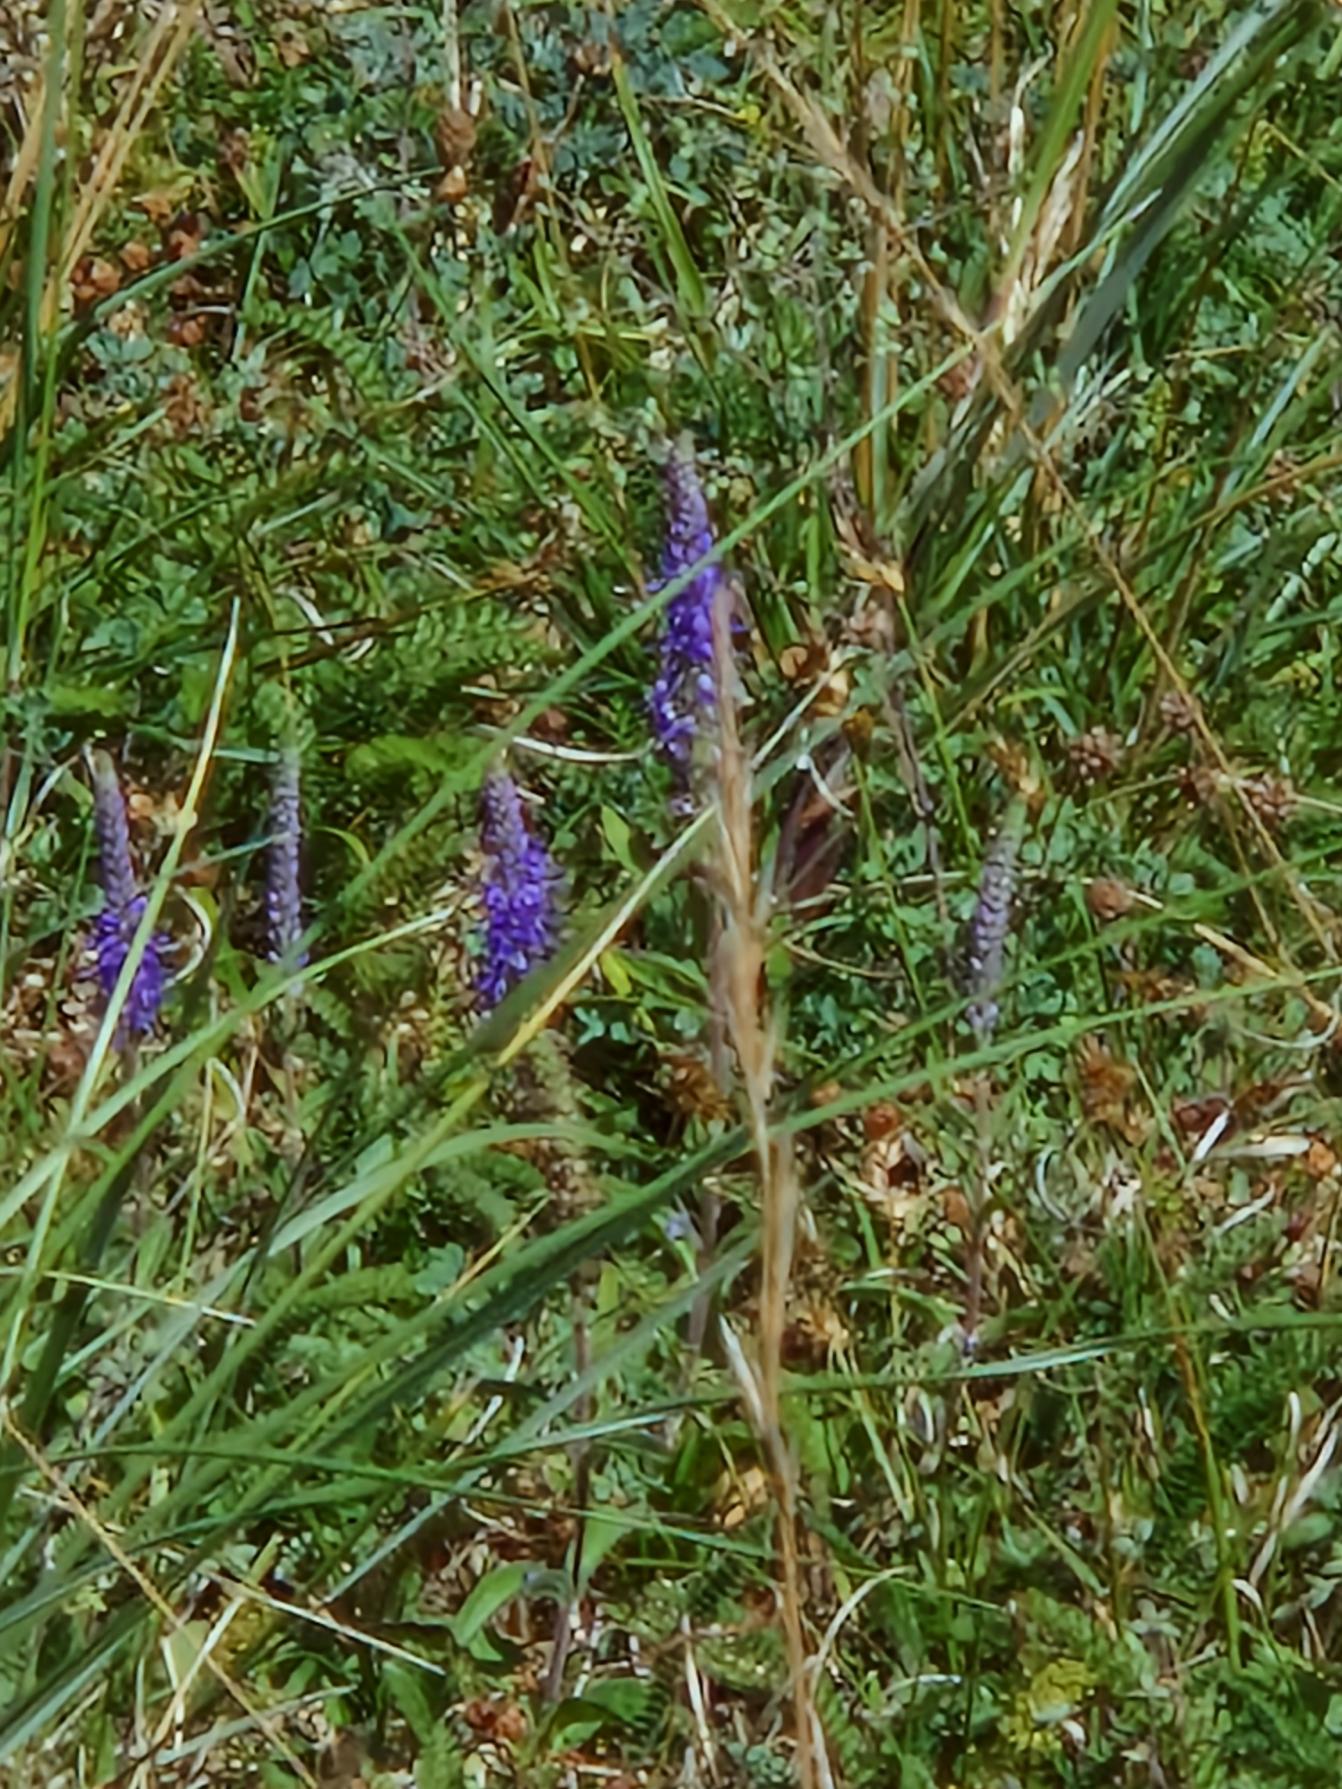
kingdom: Plantae
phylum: Tracheophyta
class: Magnoliopsida
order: Lamiales
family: Plantaginaceae
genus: Veronica
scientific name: Veronica spicata
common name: Aks-ærenpris
